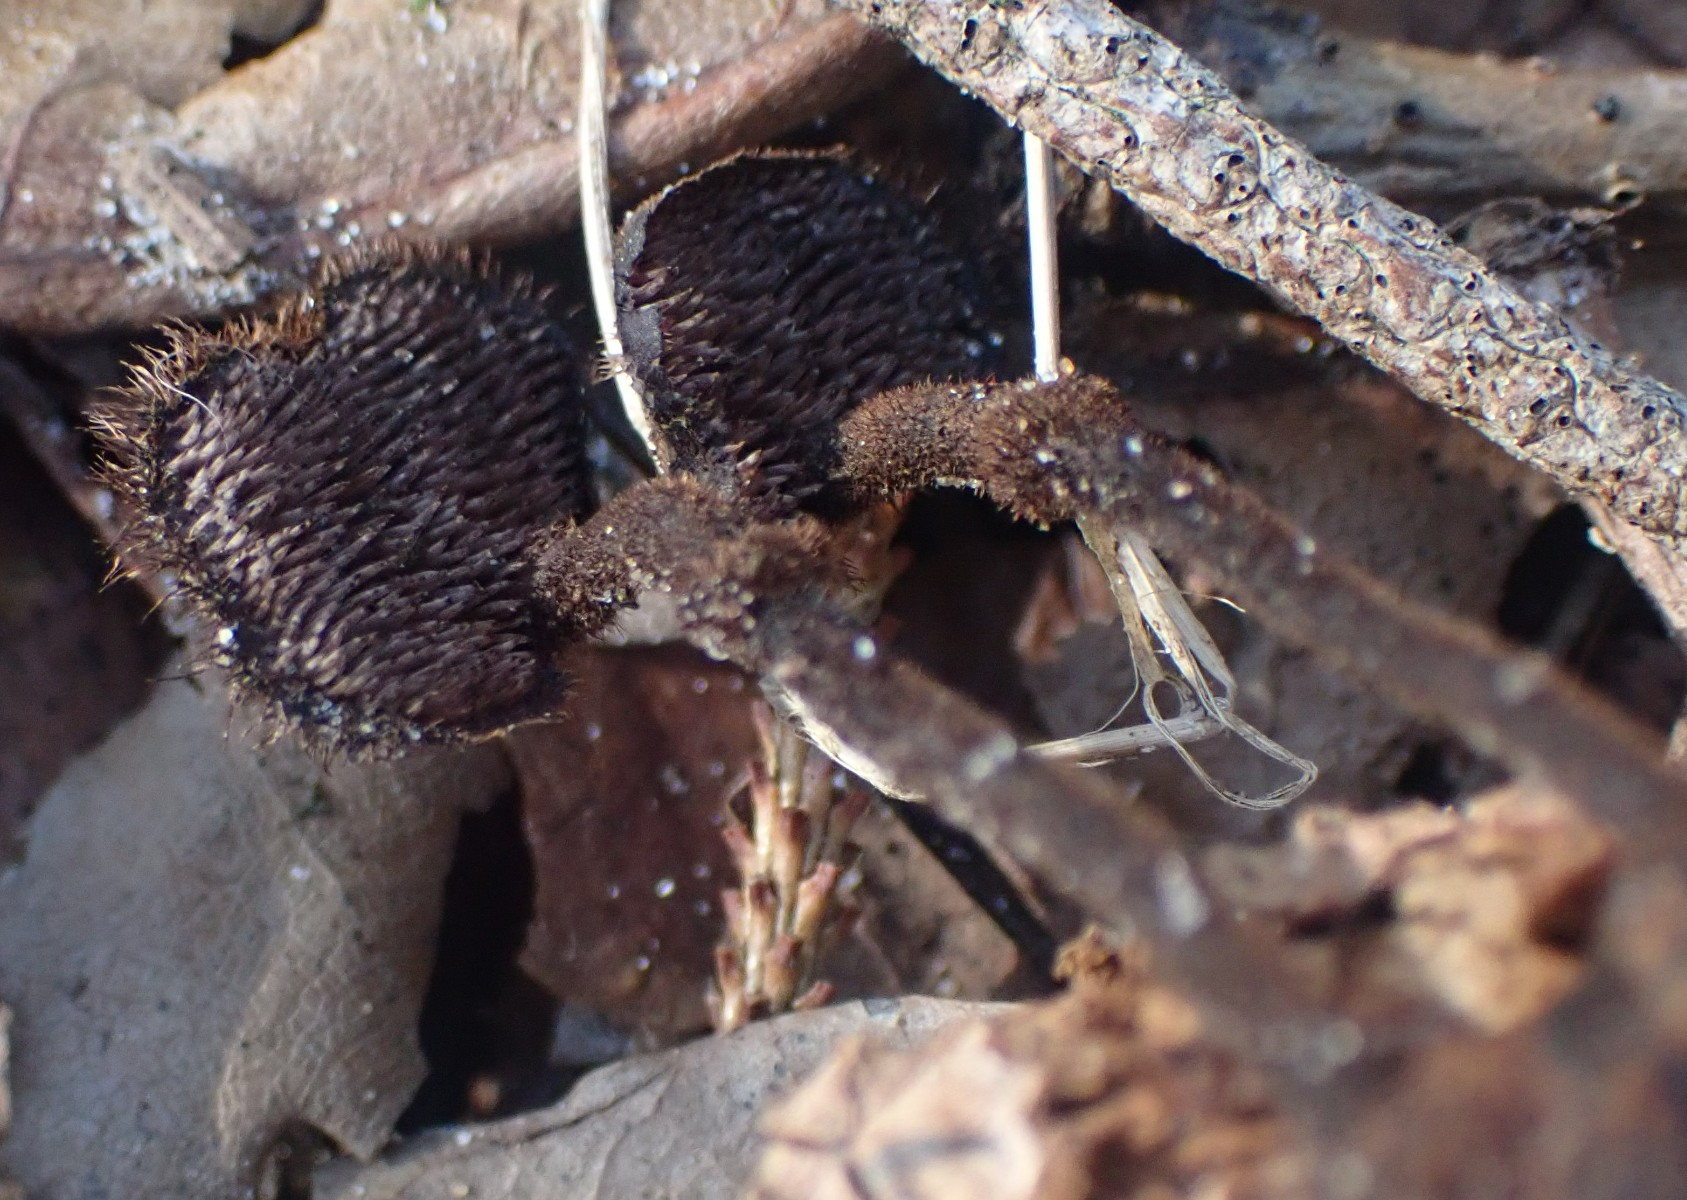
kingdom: Fungi
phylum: Basidiomycota
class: Agaricomycetes
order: Russulales
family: Auriscalpiaceae
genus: Auriscalpium
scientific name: Auriscalpium vulgare
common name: koglepigsvamp
